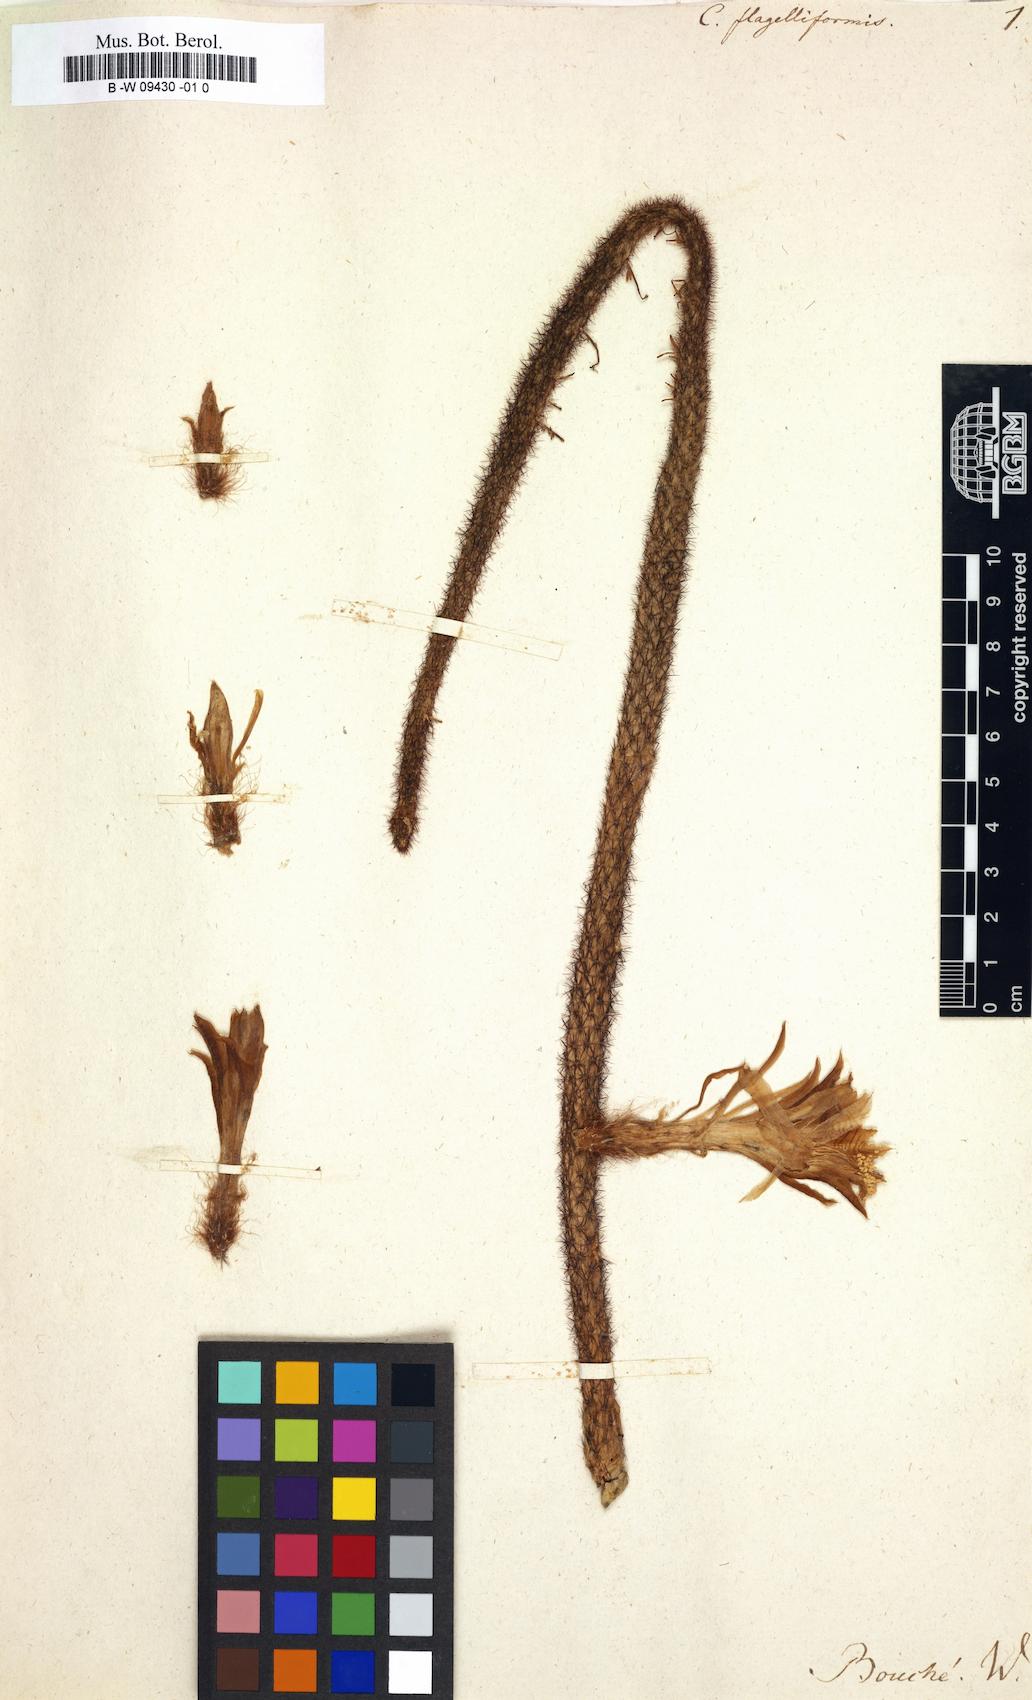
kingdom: Plantae
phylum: Tracheophyta
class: Magnoliopsida
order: Caryophyllales
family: Cactaceae
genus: Aporocactus
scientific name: Aporocactus flagelliformis
